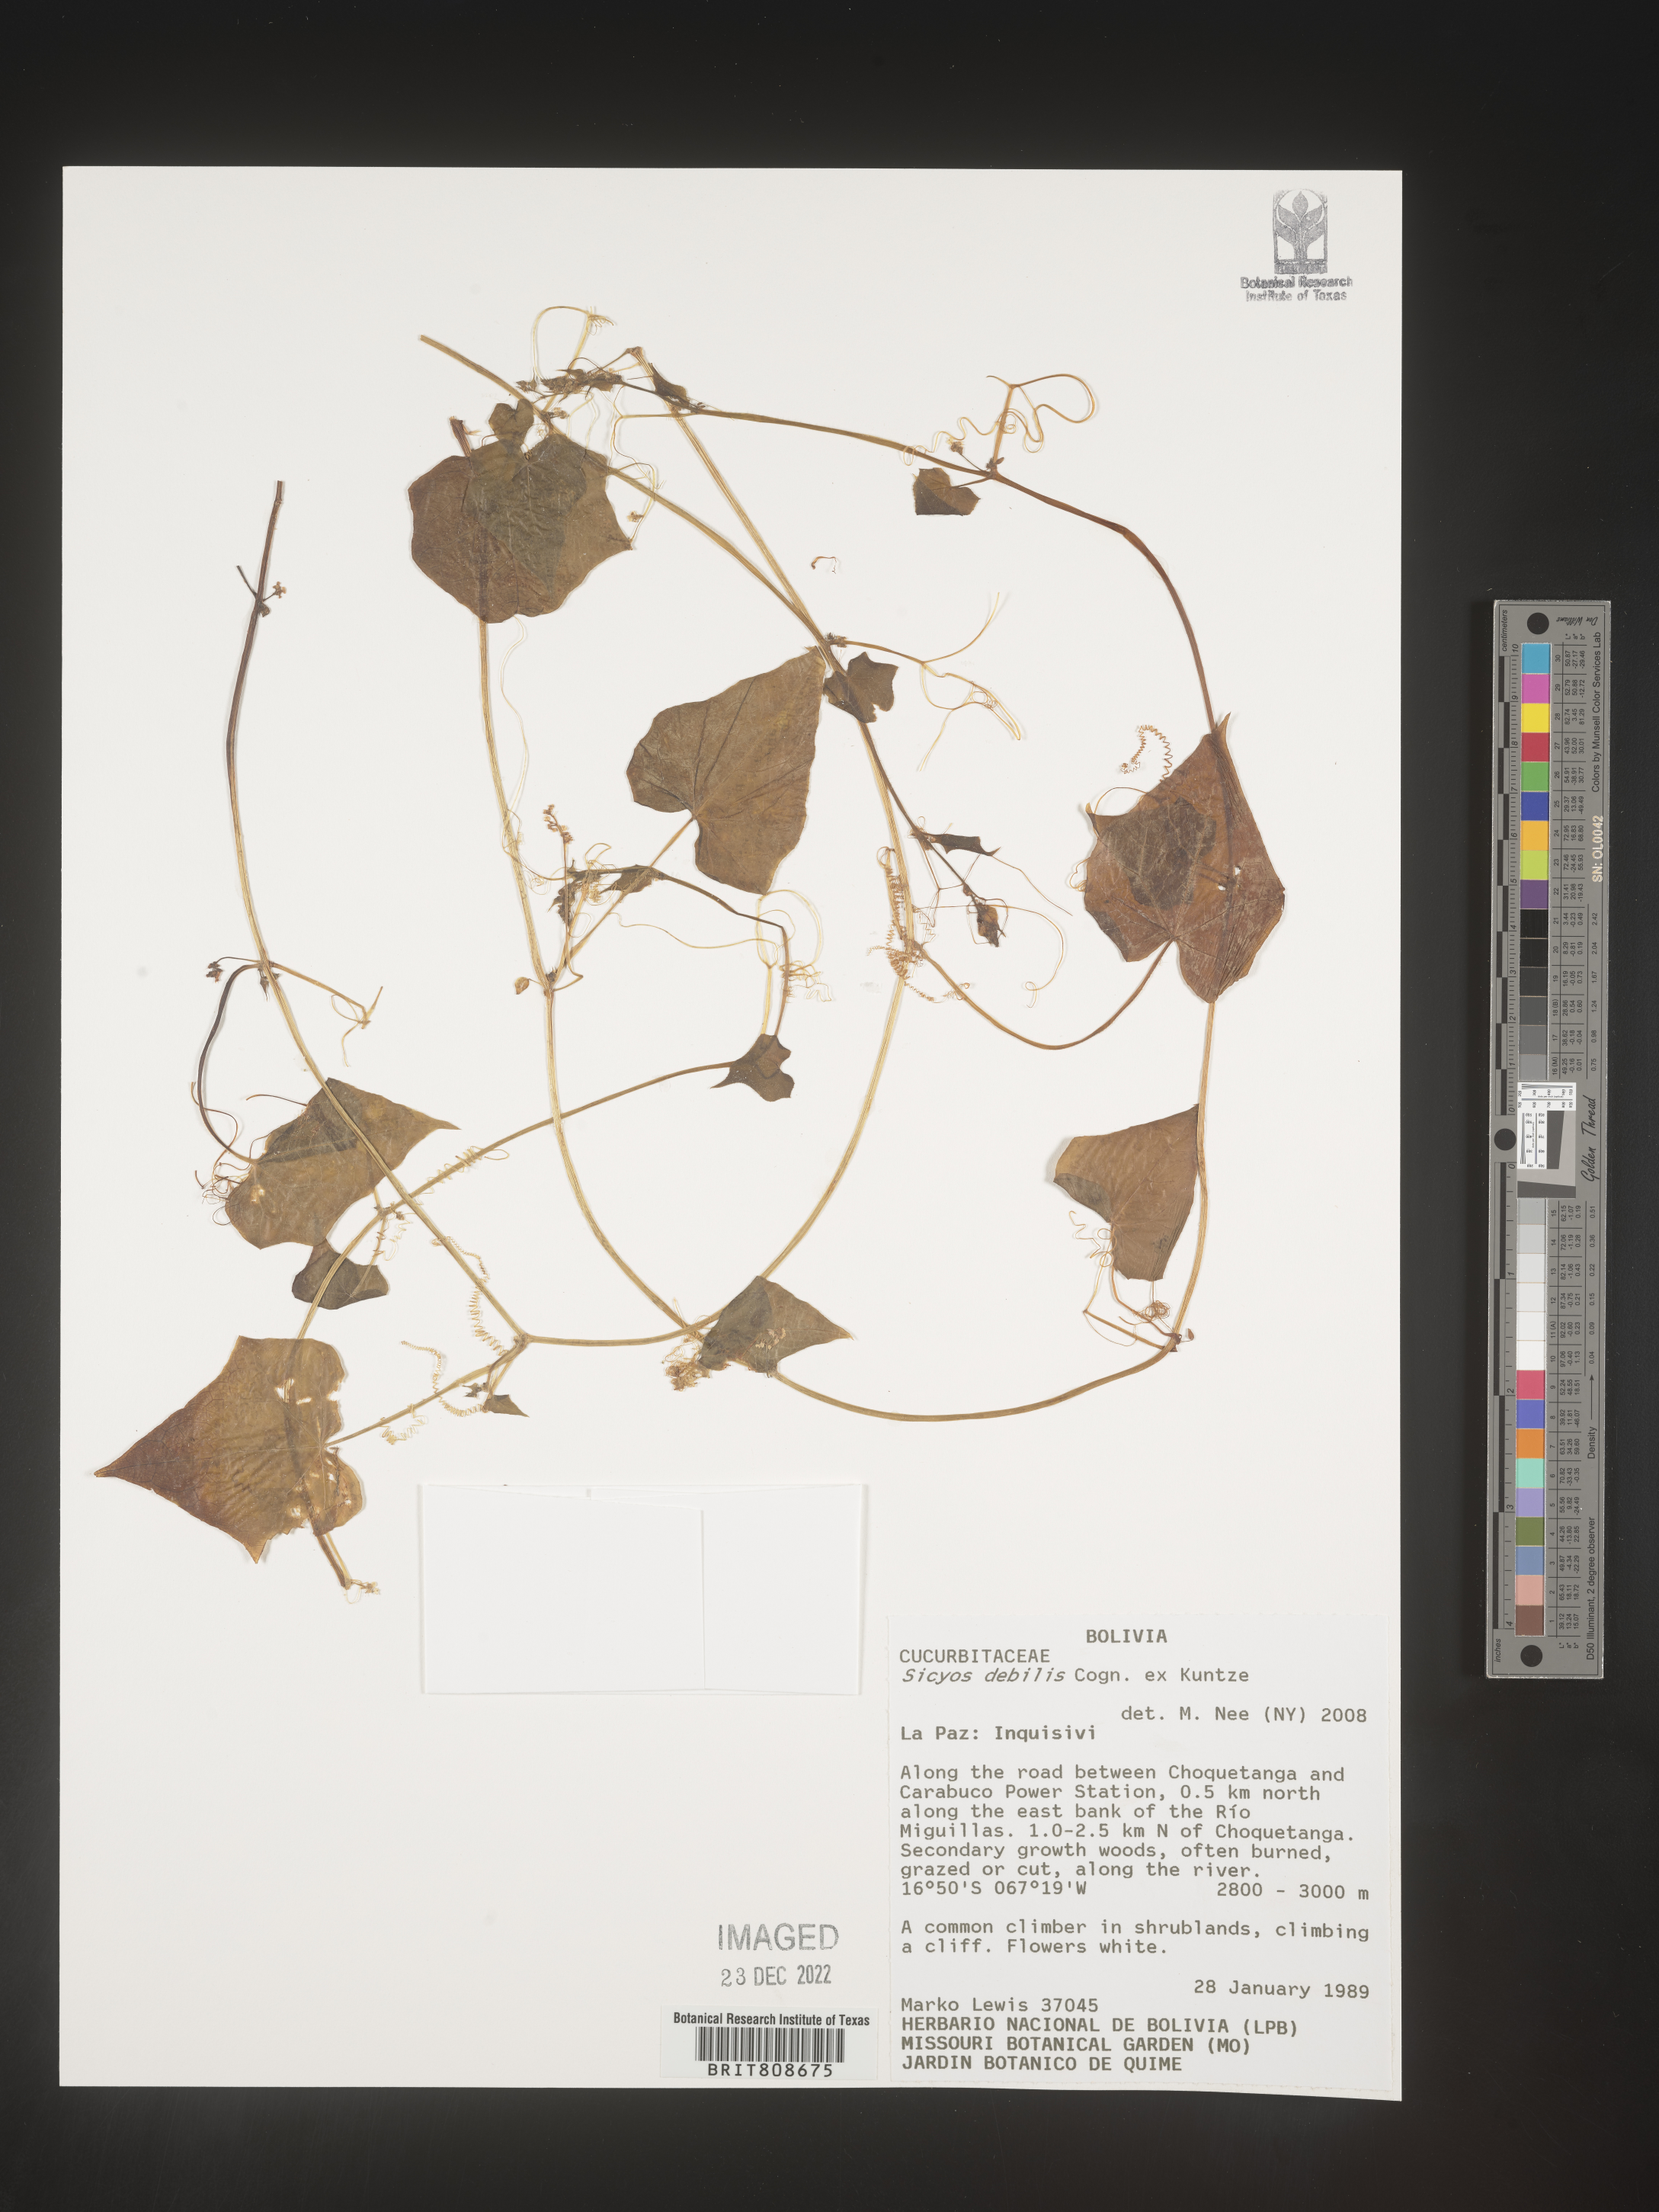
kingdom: Plantae
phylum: Tracheophyta
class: Magnoliopsida
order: Cucurbitales
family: Cucurbitaceae
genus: Sicyos
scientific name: Sicyos
